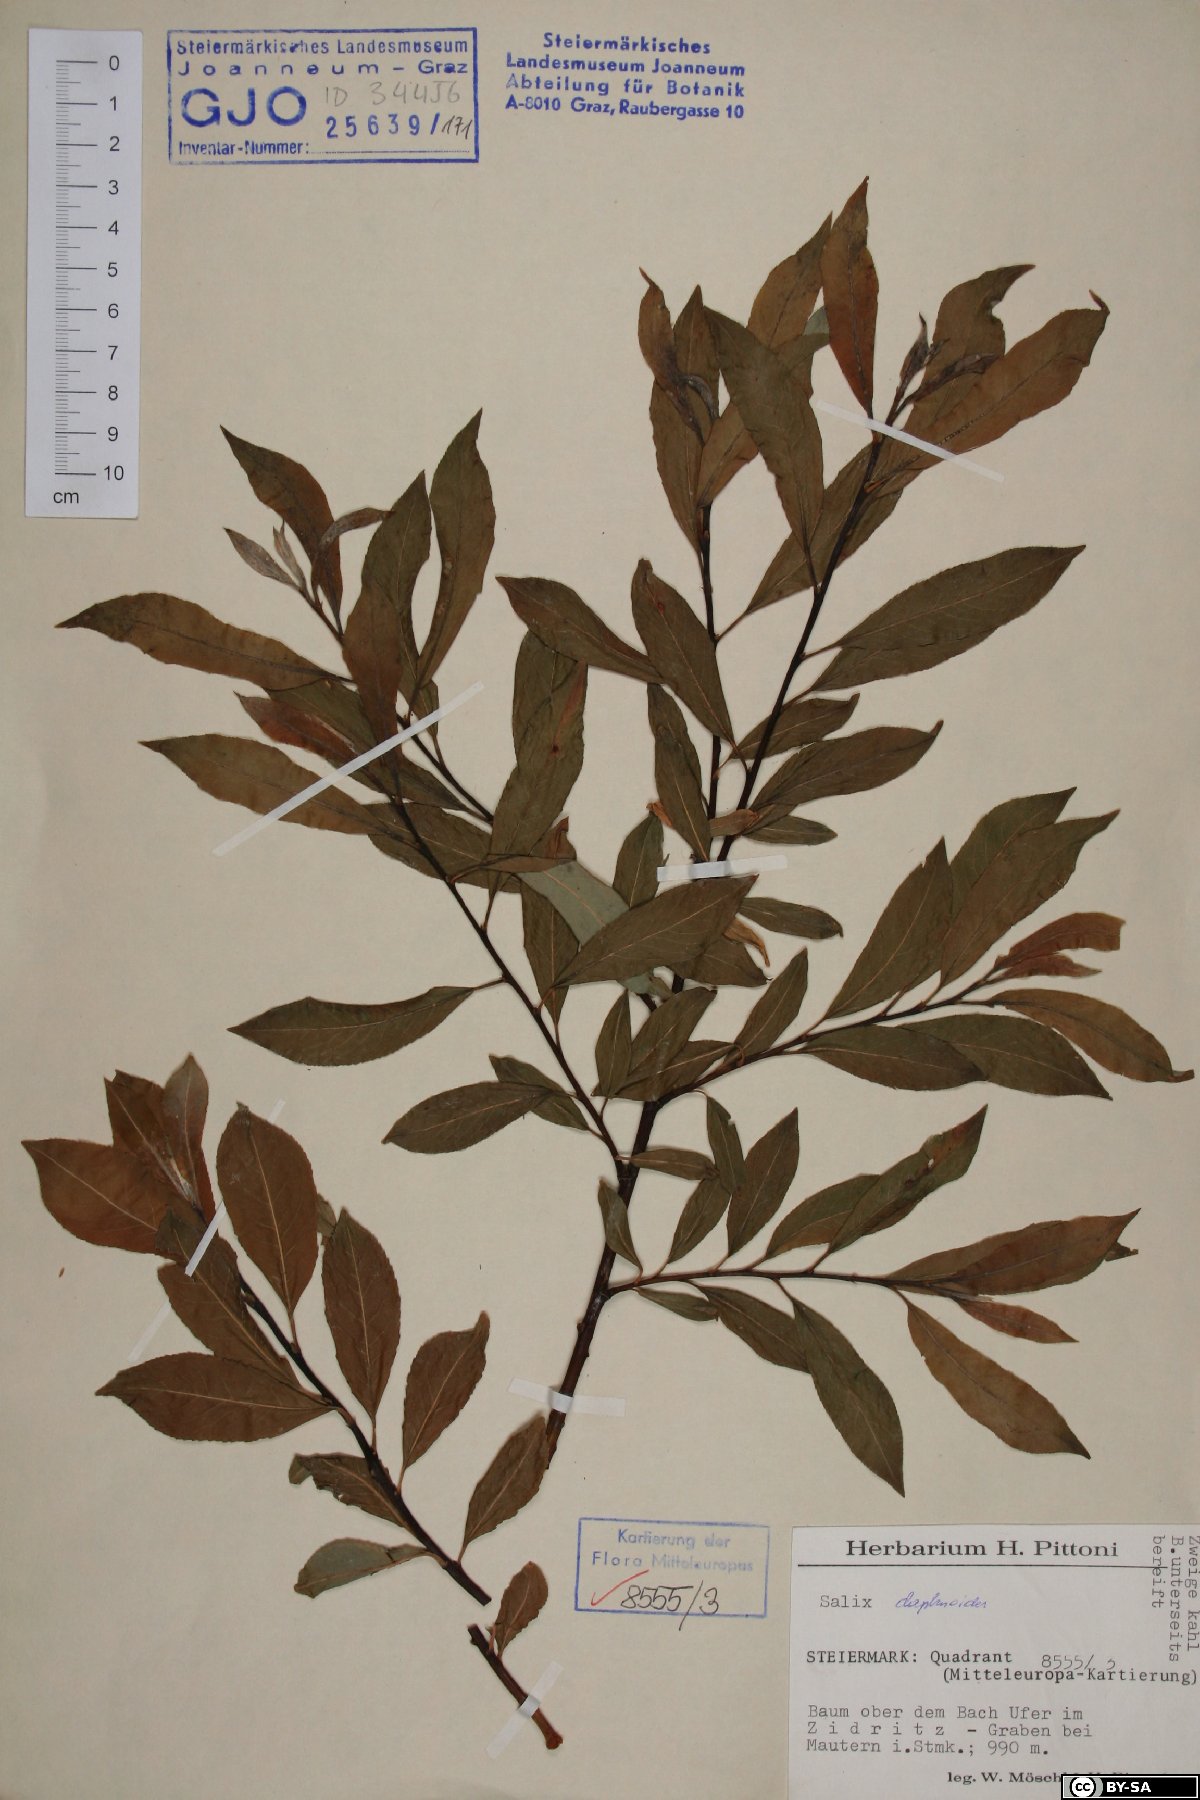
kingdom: Plantae
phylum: Tracheophyta
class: Magnoliopsida
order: Malpighiales
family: Salicaceae
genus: Salix
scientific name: Salix daphnoides
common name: European violet-willow
